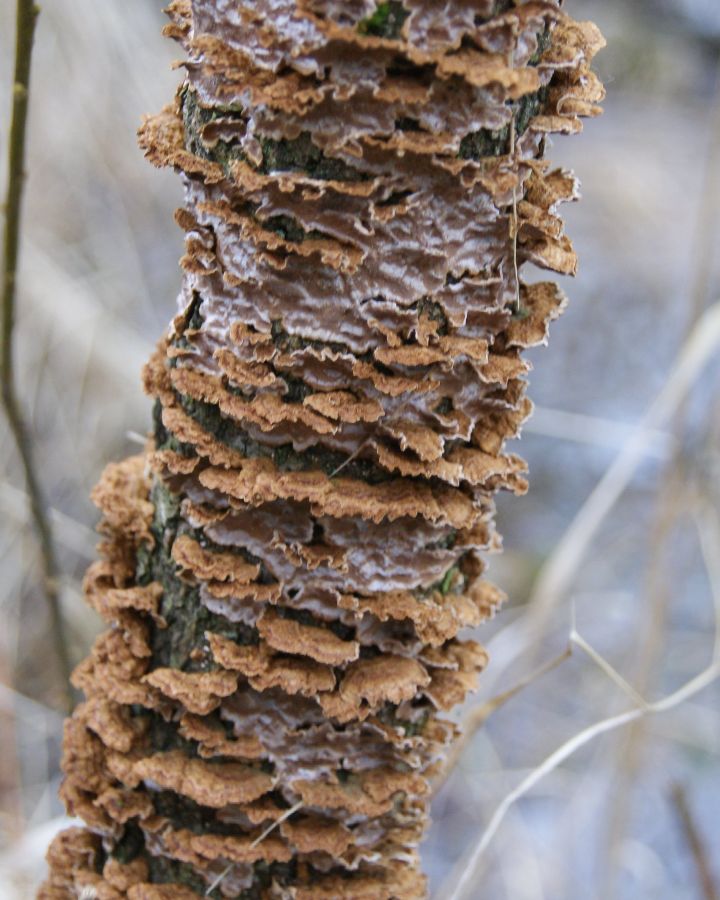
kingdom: Fungi
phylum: Basidiomycota
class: Agaricomycetes
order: Hymenochaetales
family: Hymenochaetaceae
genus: Hydnoporia
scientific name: Hydnoporia tabacina
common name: tobaksbrun ruslædersvamp
